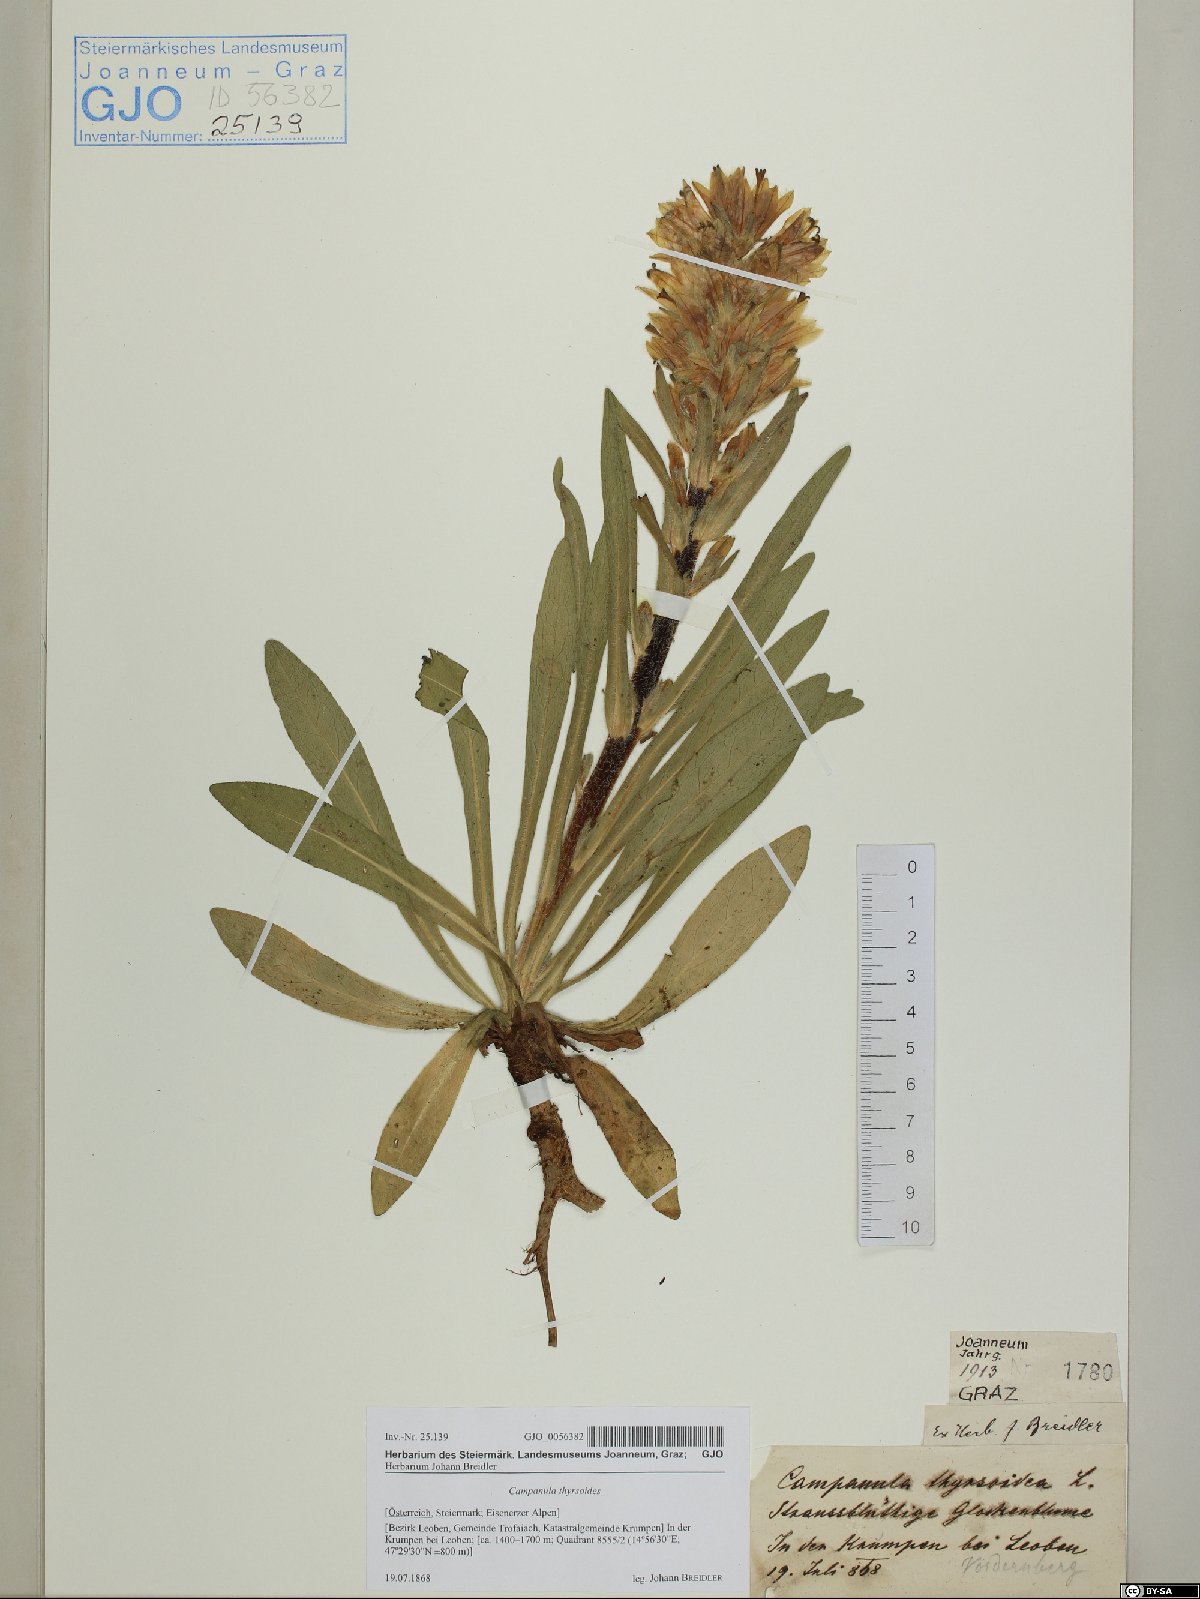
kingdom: Plantae
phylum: Tracheophyta
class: Magnoliopsida
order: Asterales
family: Campanulaceae
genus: Campanula
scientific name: Campanula thyrsoides
